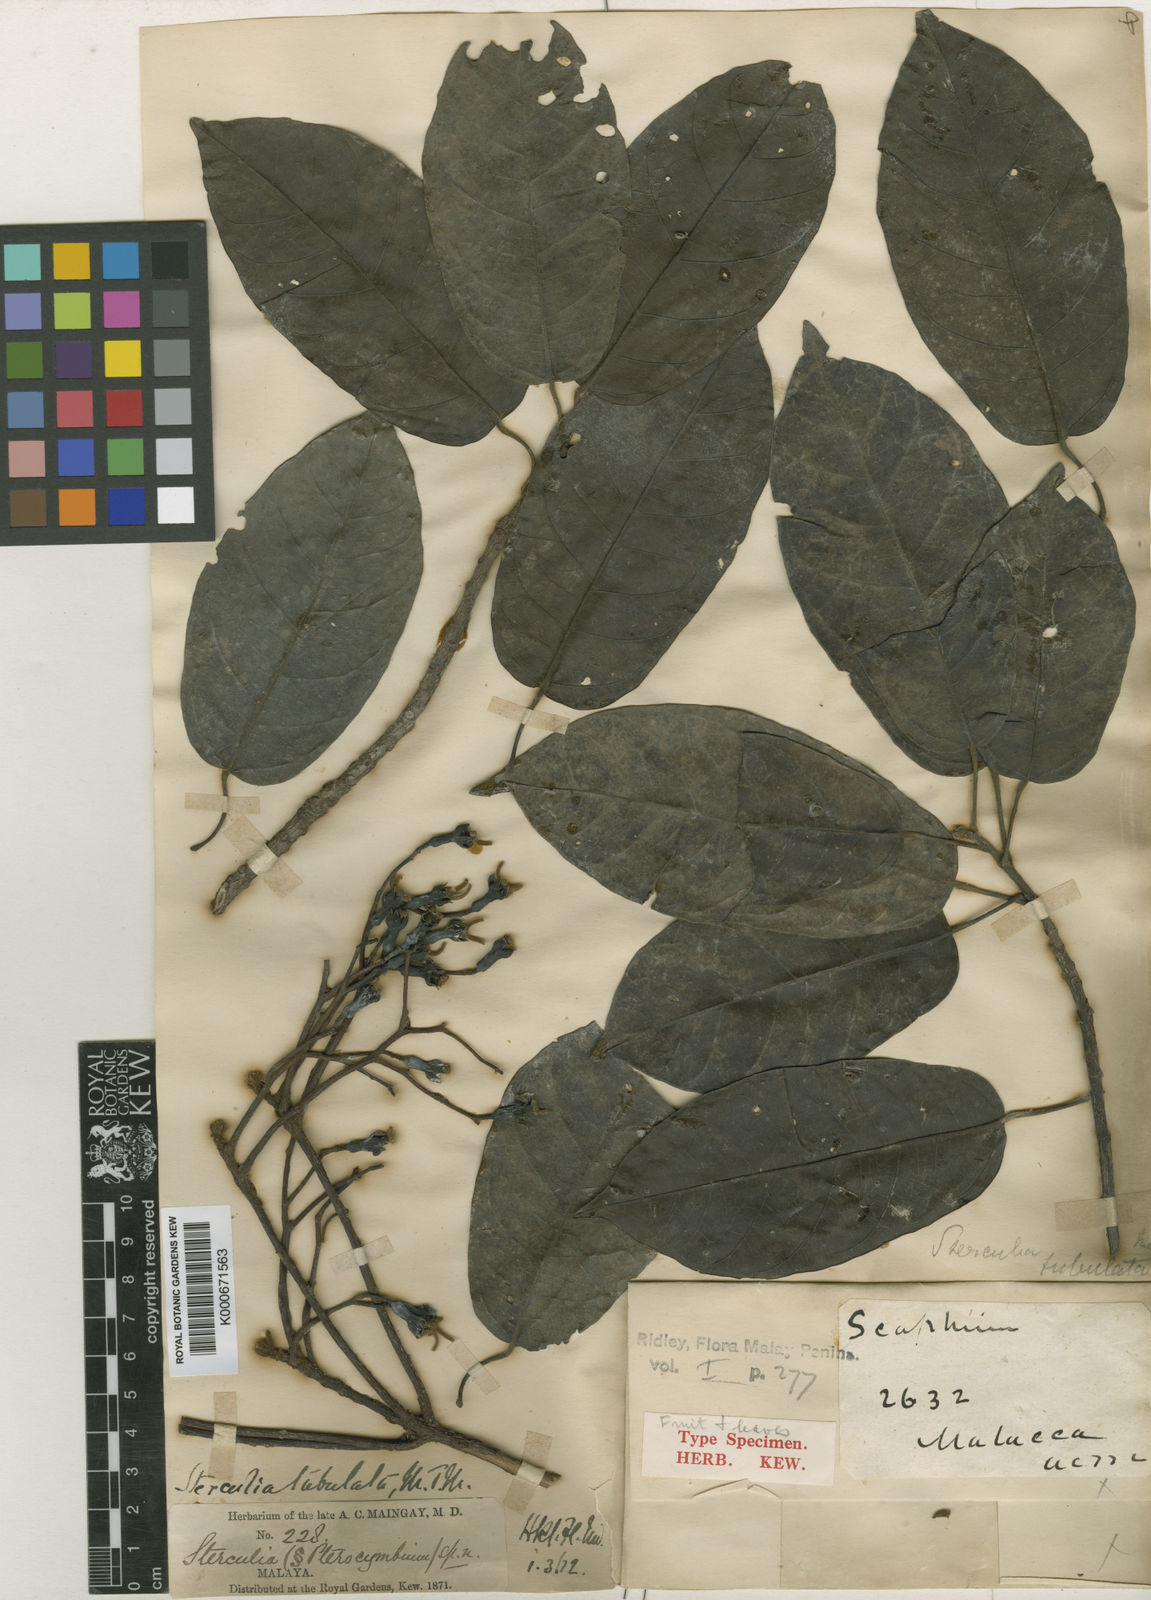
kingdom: Plantae
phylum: Tracheophyta
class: Magnoliopsida
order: Malvales
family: Malvaceae
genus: Pterocymbium
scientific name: Pterocymbium tubulatum
